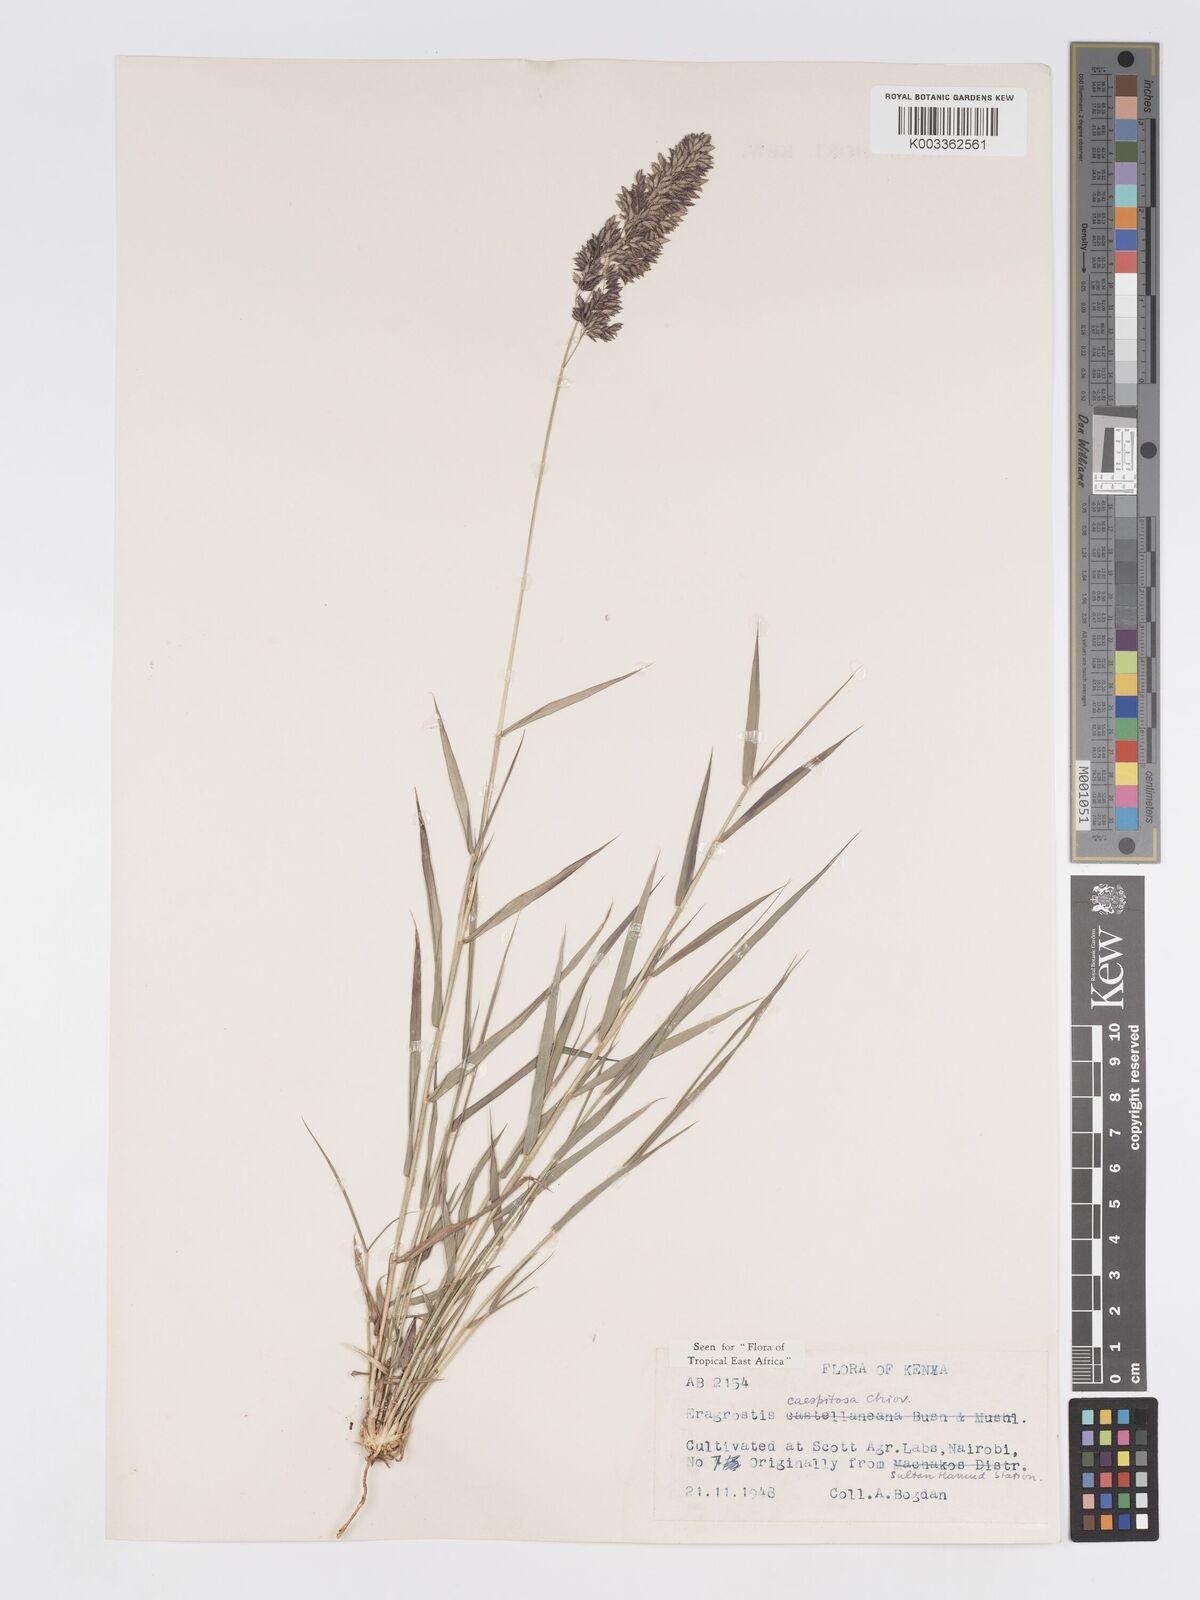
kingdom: Plantae
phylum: Tracheophyta
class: Liliopsida
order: Poales
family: Poaceae
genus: Eragrostis
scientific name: Eragrostis caespitosa
